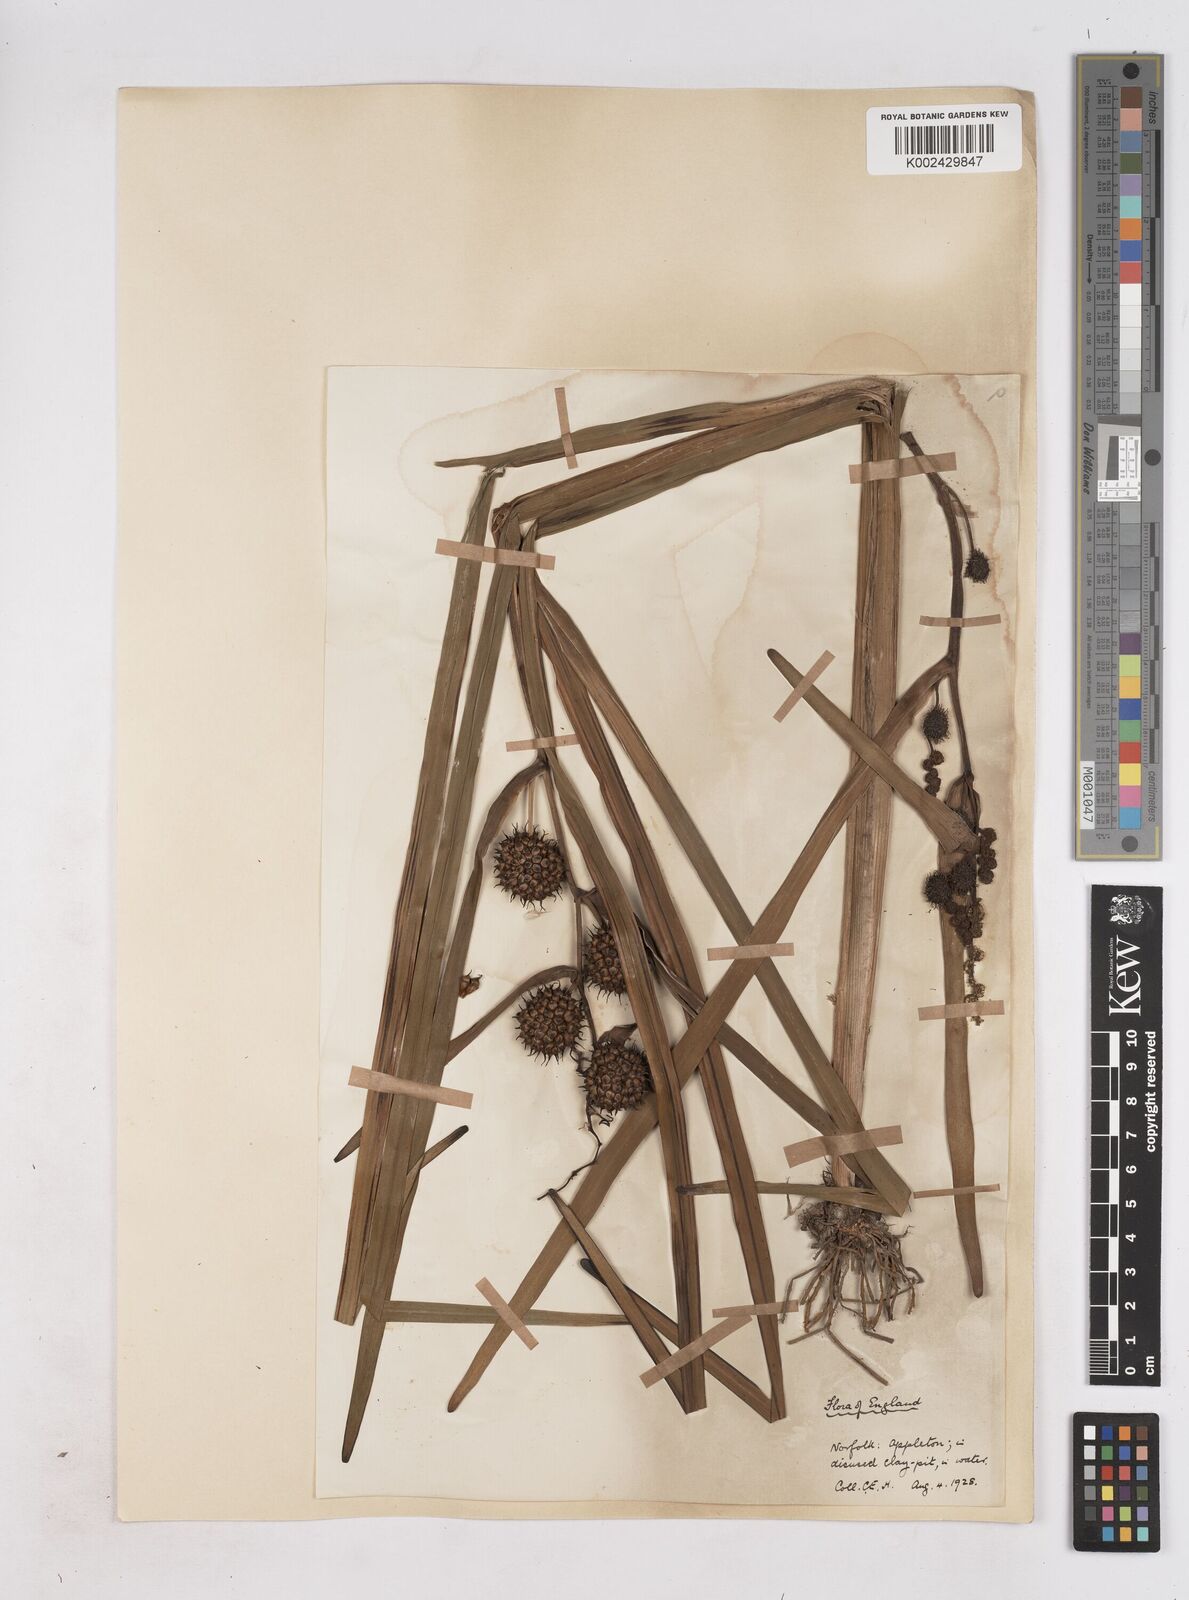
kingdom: Plantae
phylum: Tracheophyta
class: Liliopsida
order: Poales
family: Typhaceae
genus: Sparganium
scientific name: Sparganium erectum
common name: Branched bur-reed
